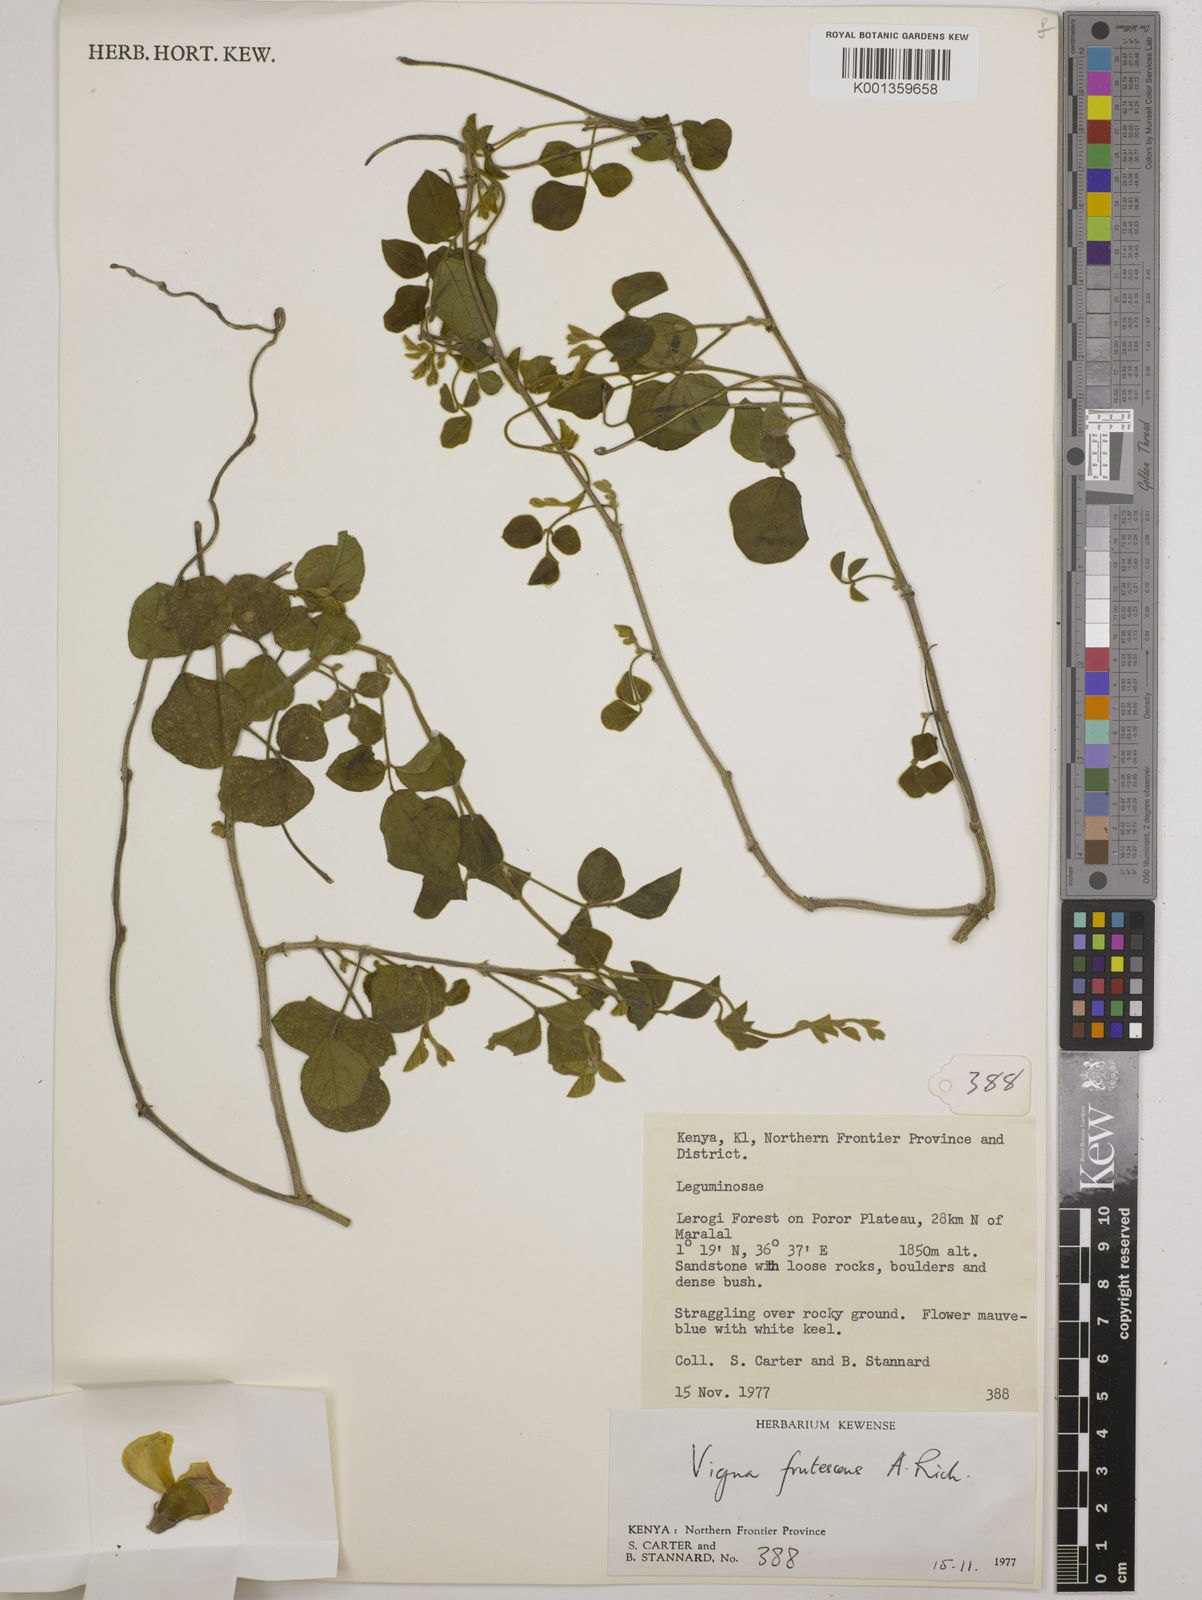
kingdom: Plantae
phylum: Tracheophyta
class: Magnoliopsida
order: Fabales
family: Fabaceae
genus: Vigna
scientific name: Vigna frutescens
